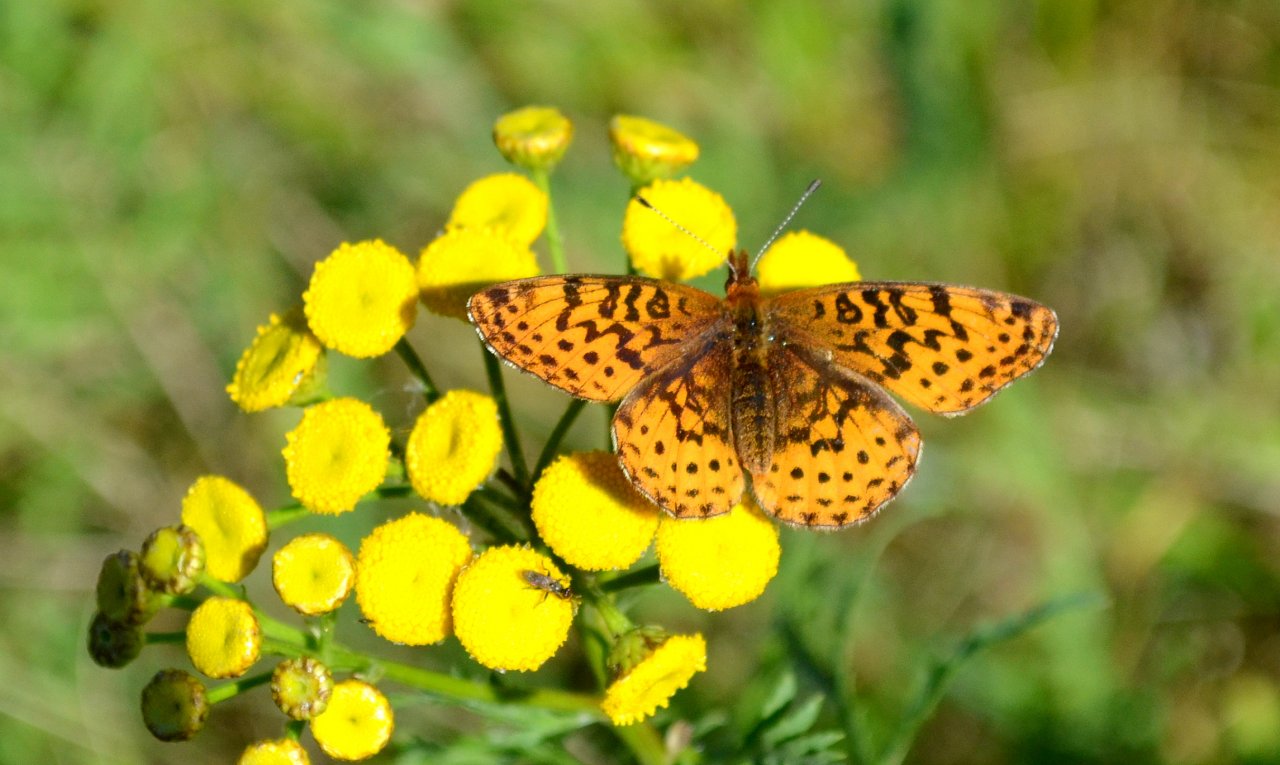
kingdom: Animalia
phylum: Arthropoda
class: Insecta
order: Lepidoptera
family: Nymphalidae
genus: Clossiana
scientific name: Clossiana toddi
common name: Meadow Fritillary
